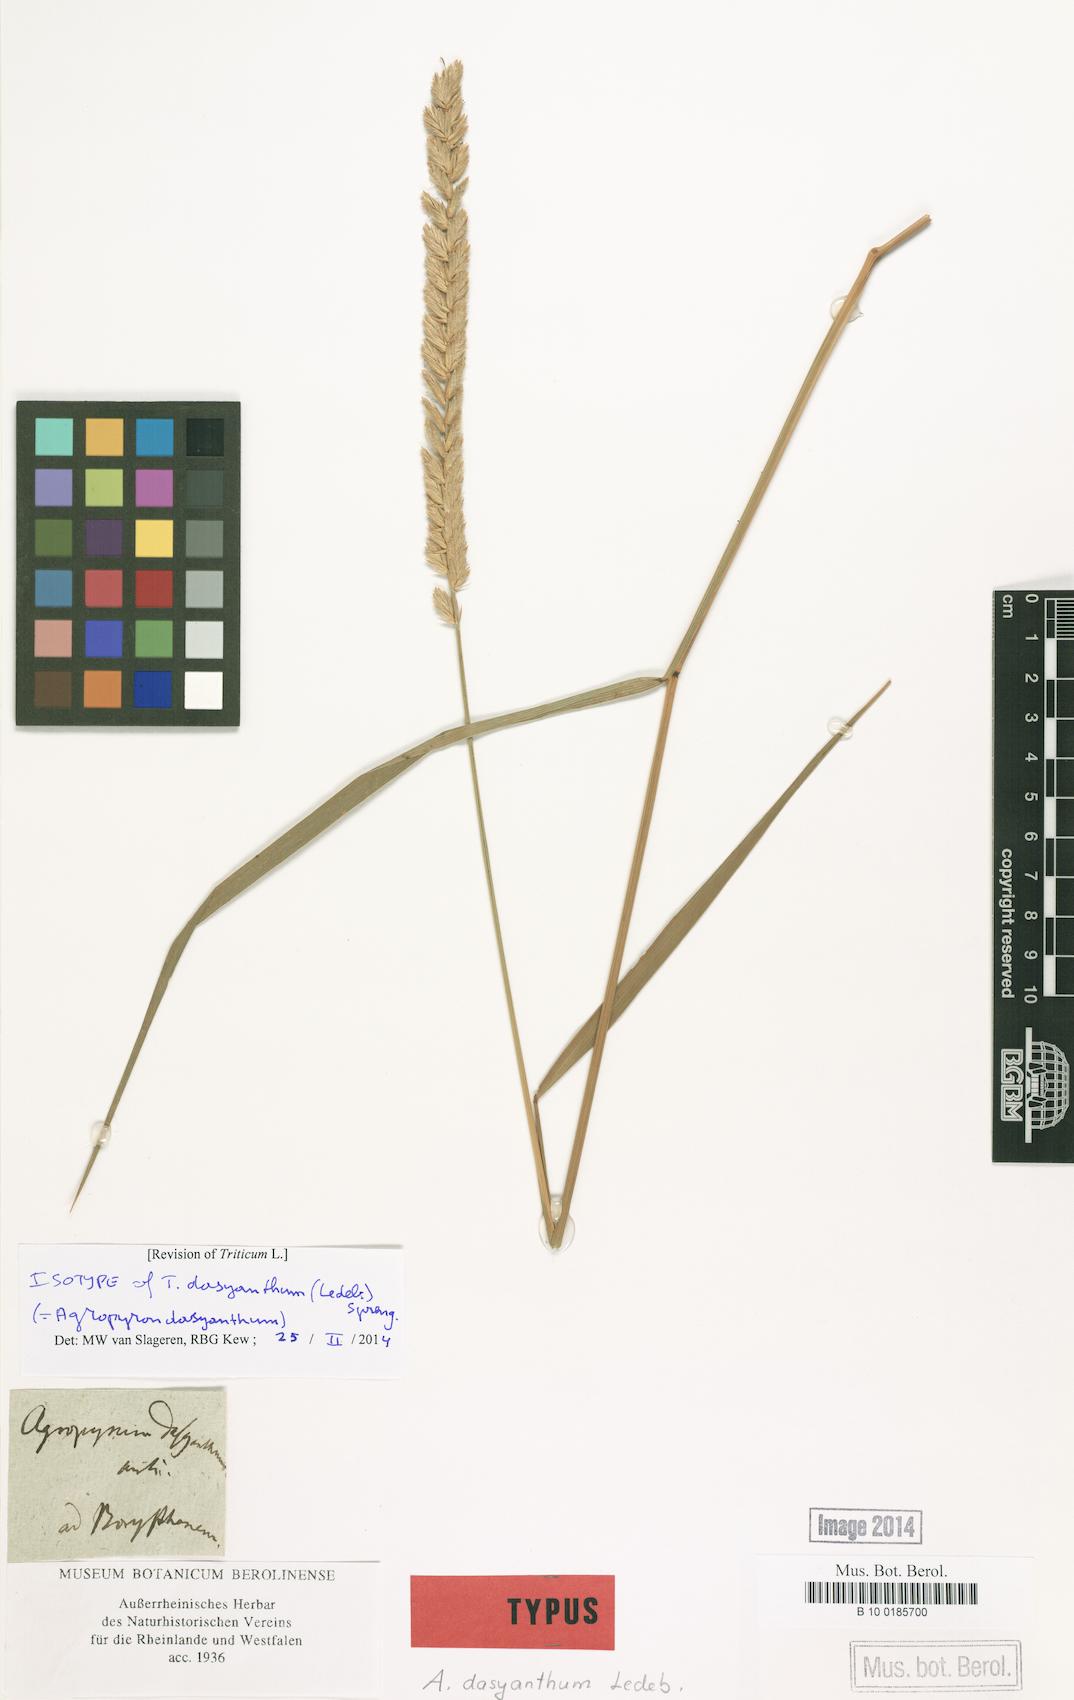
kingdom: Plantae
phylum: Tracheophyta
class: Liliopsida
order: Poales
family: Poaceae
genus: Agropyron
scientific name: Agropyron dasyanthum
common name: Edge flowered crested wheatgrass
